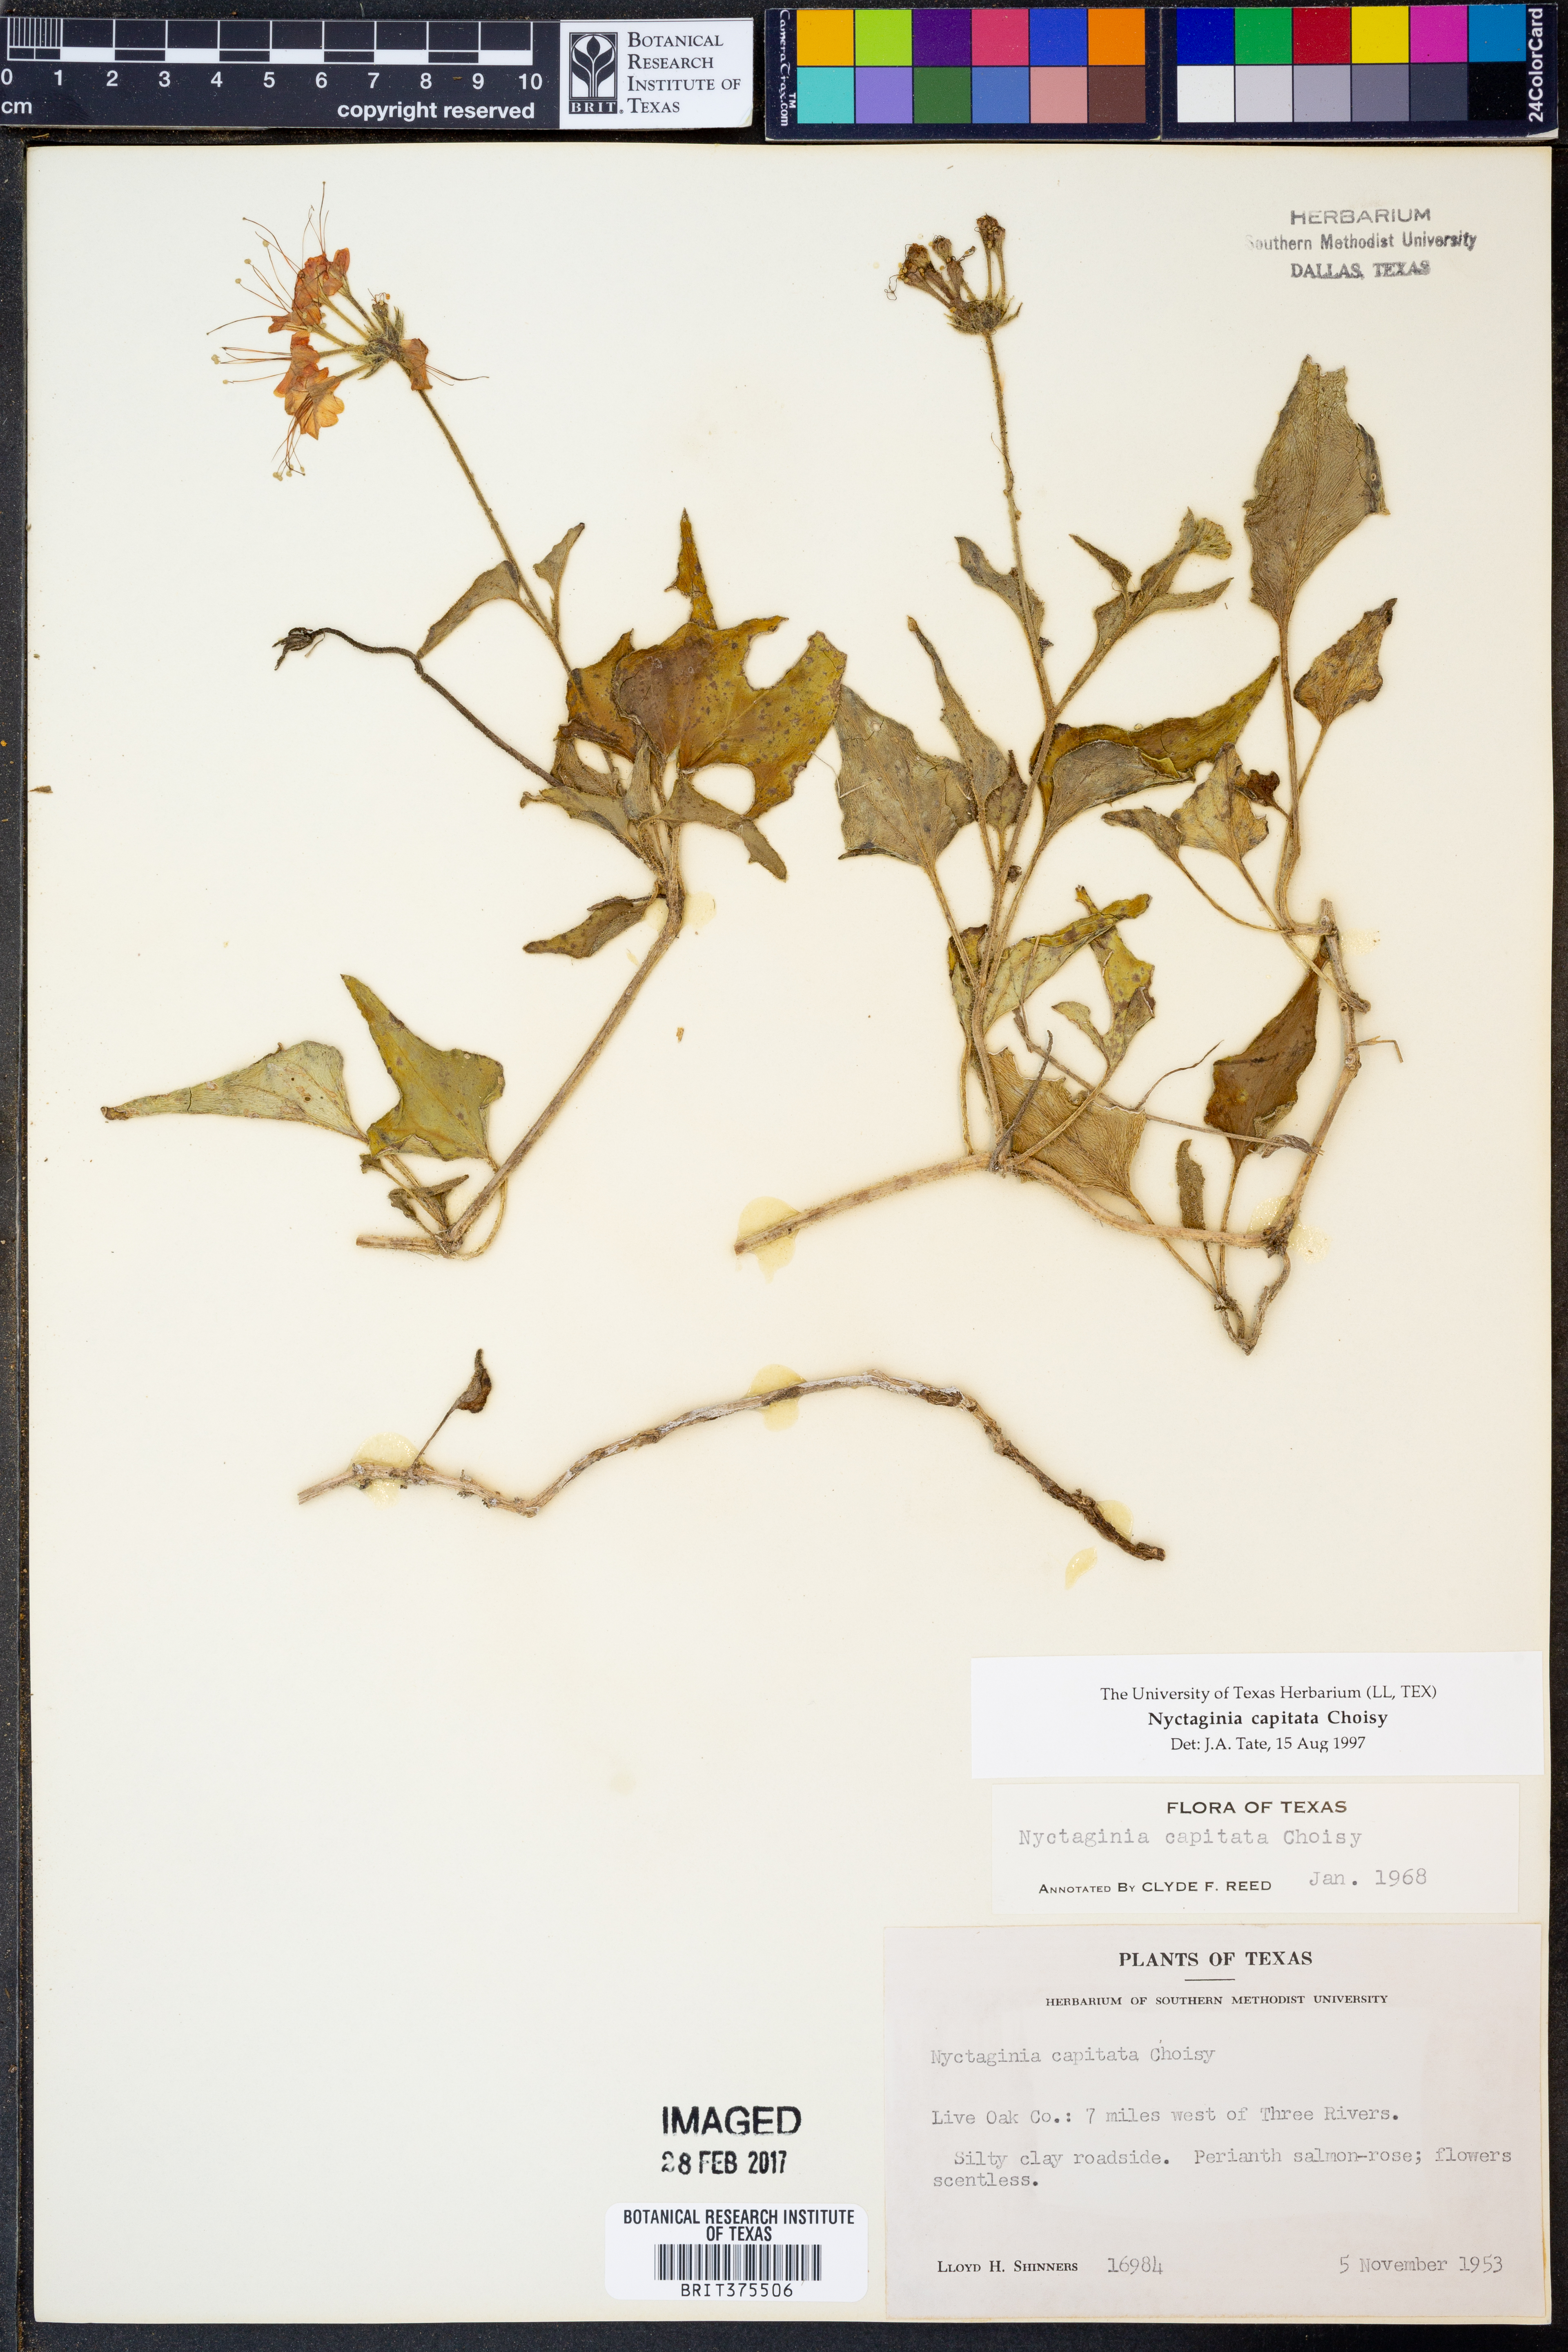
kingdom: Plantae
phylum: Tracheophyta
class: Magnoliopsida
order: Caryophyllales
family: Nyctaginaceae
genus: Nyctaginia
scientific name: Nyctaginia capitata
